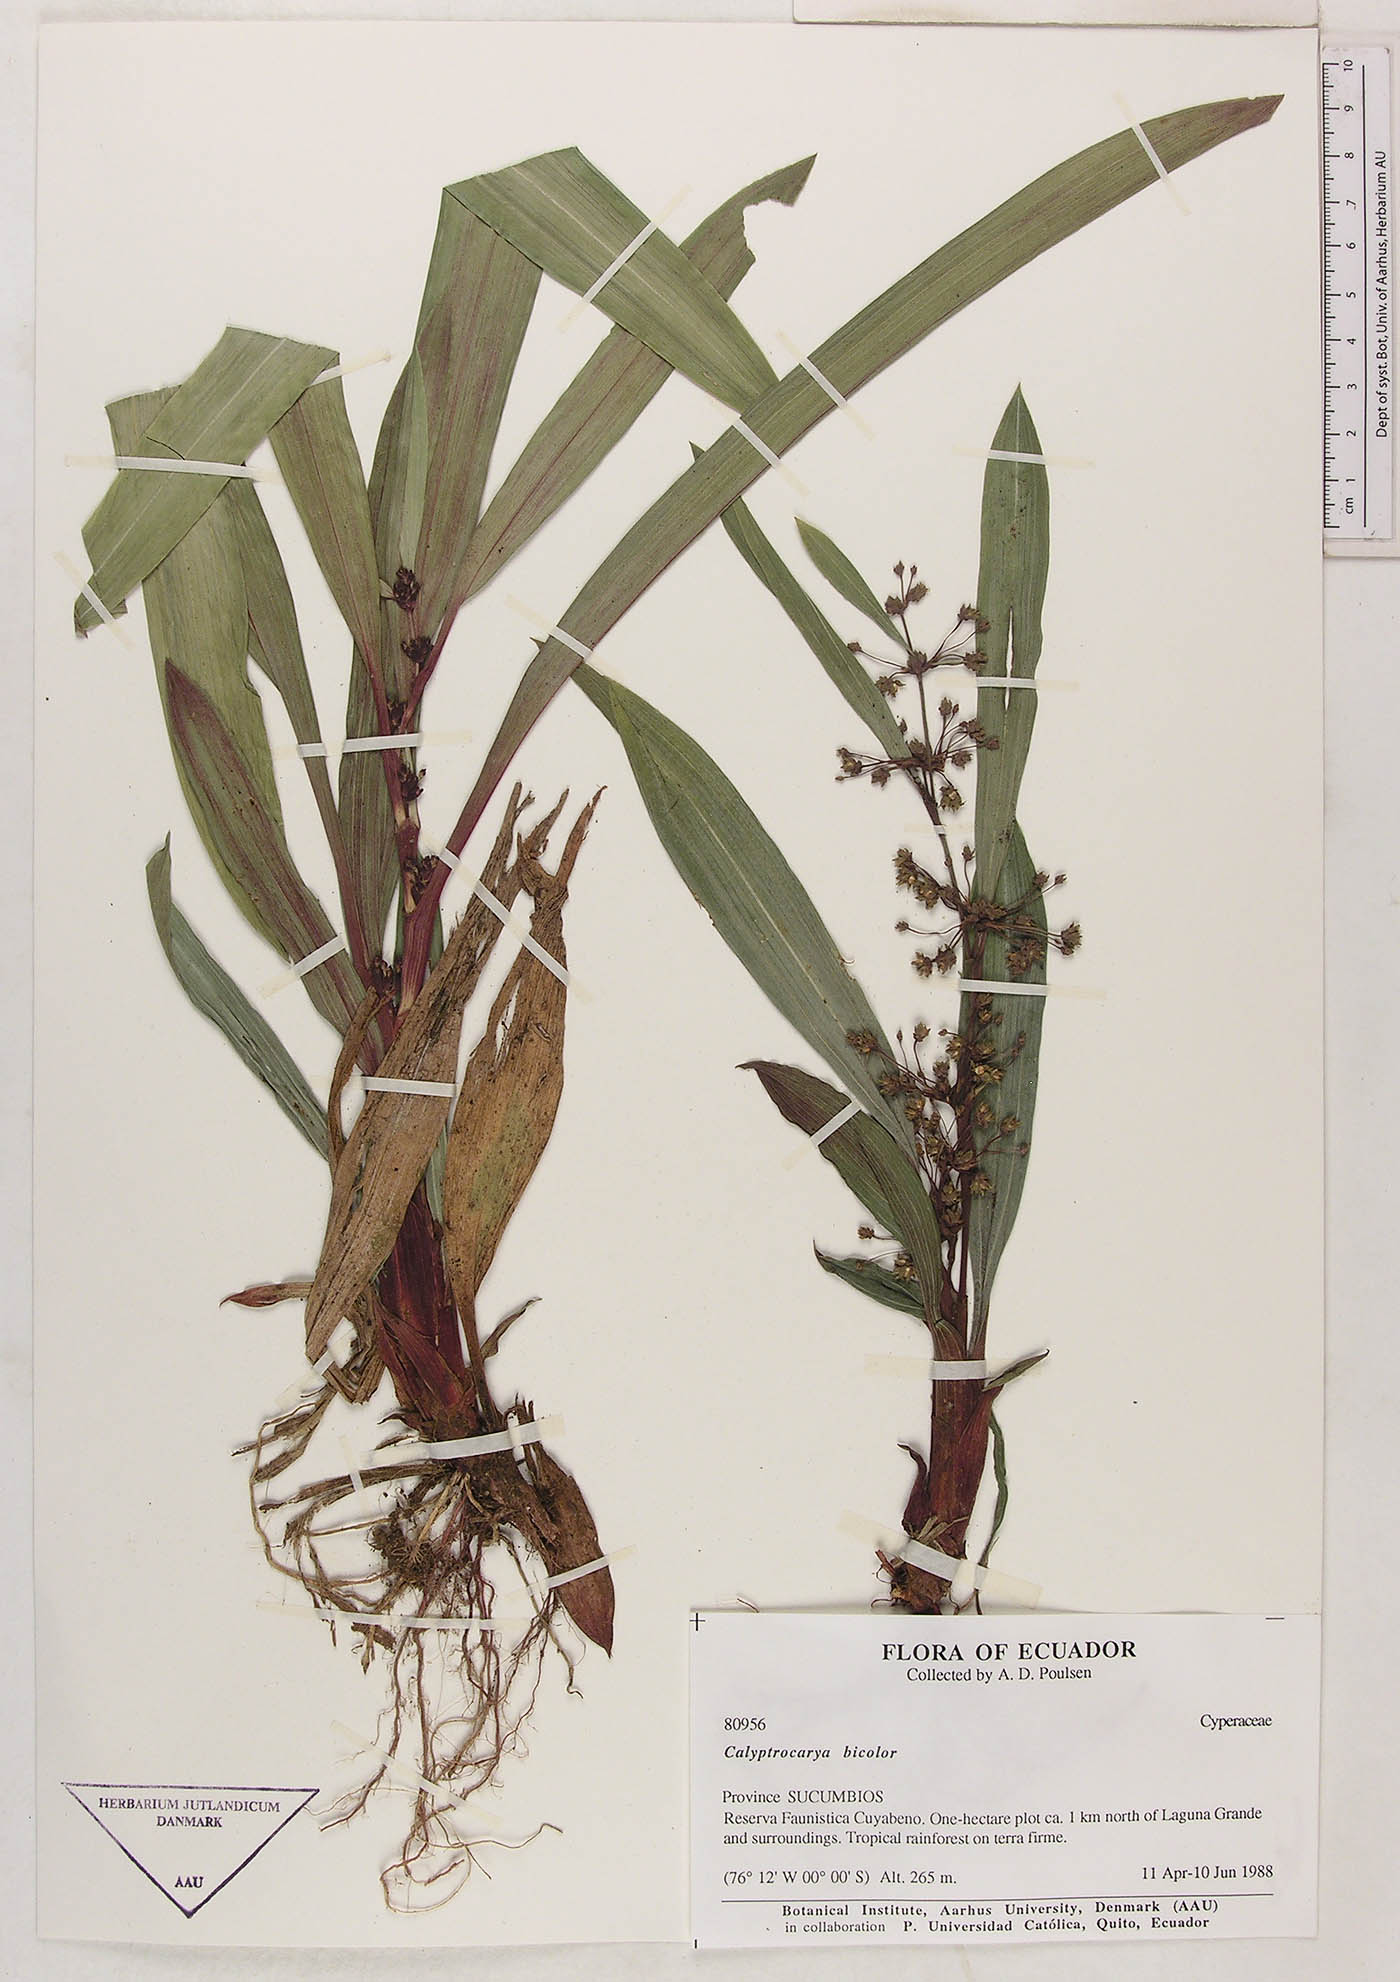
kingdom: Plantae
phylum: Tracheophyta
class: Liliopsida
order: Poales
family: Cyperaceae
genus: Calyptrocarya
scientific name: Calyptrocarya bicolor
